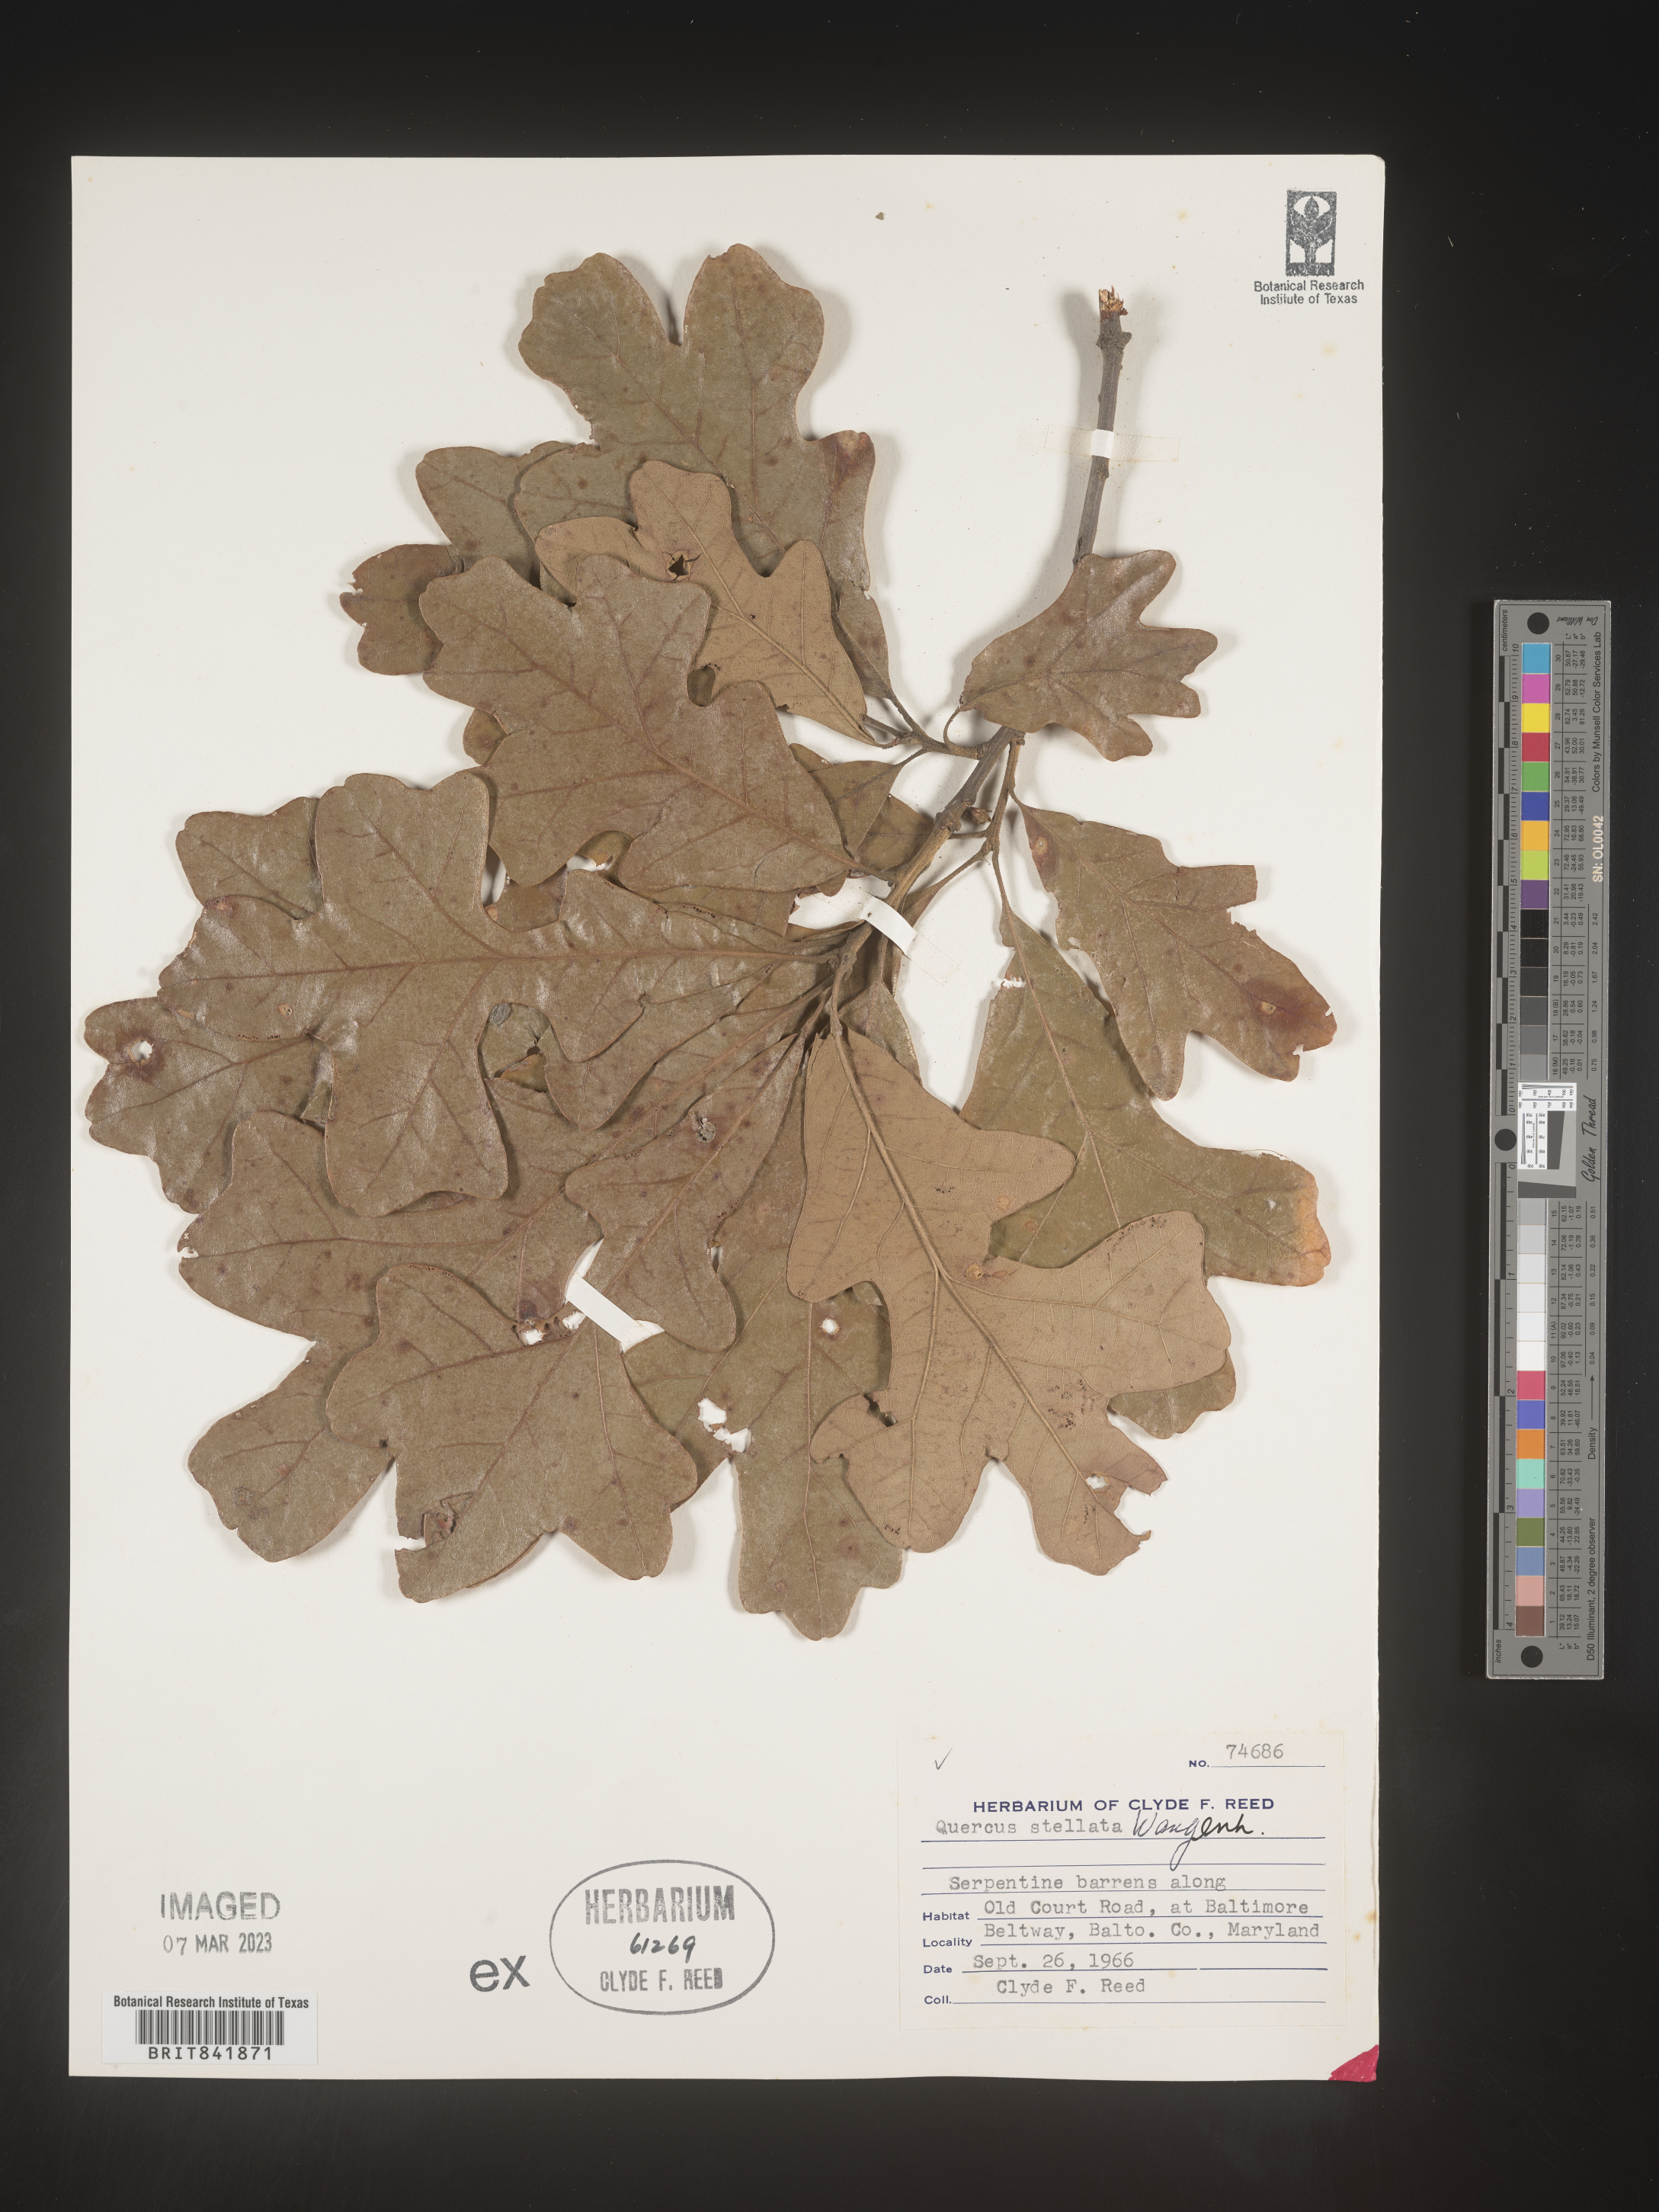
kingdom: Plantae
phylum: Tracheophyta
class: Magnoliopsida
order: Fagales
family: Fagaceae
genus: Quercus
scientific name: Quercus stellata
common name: Post oak
